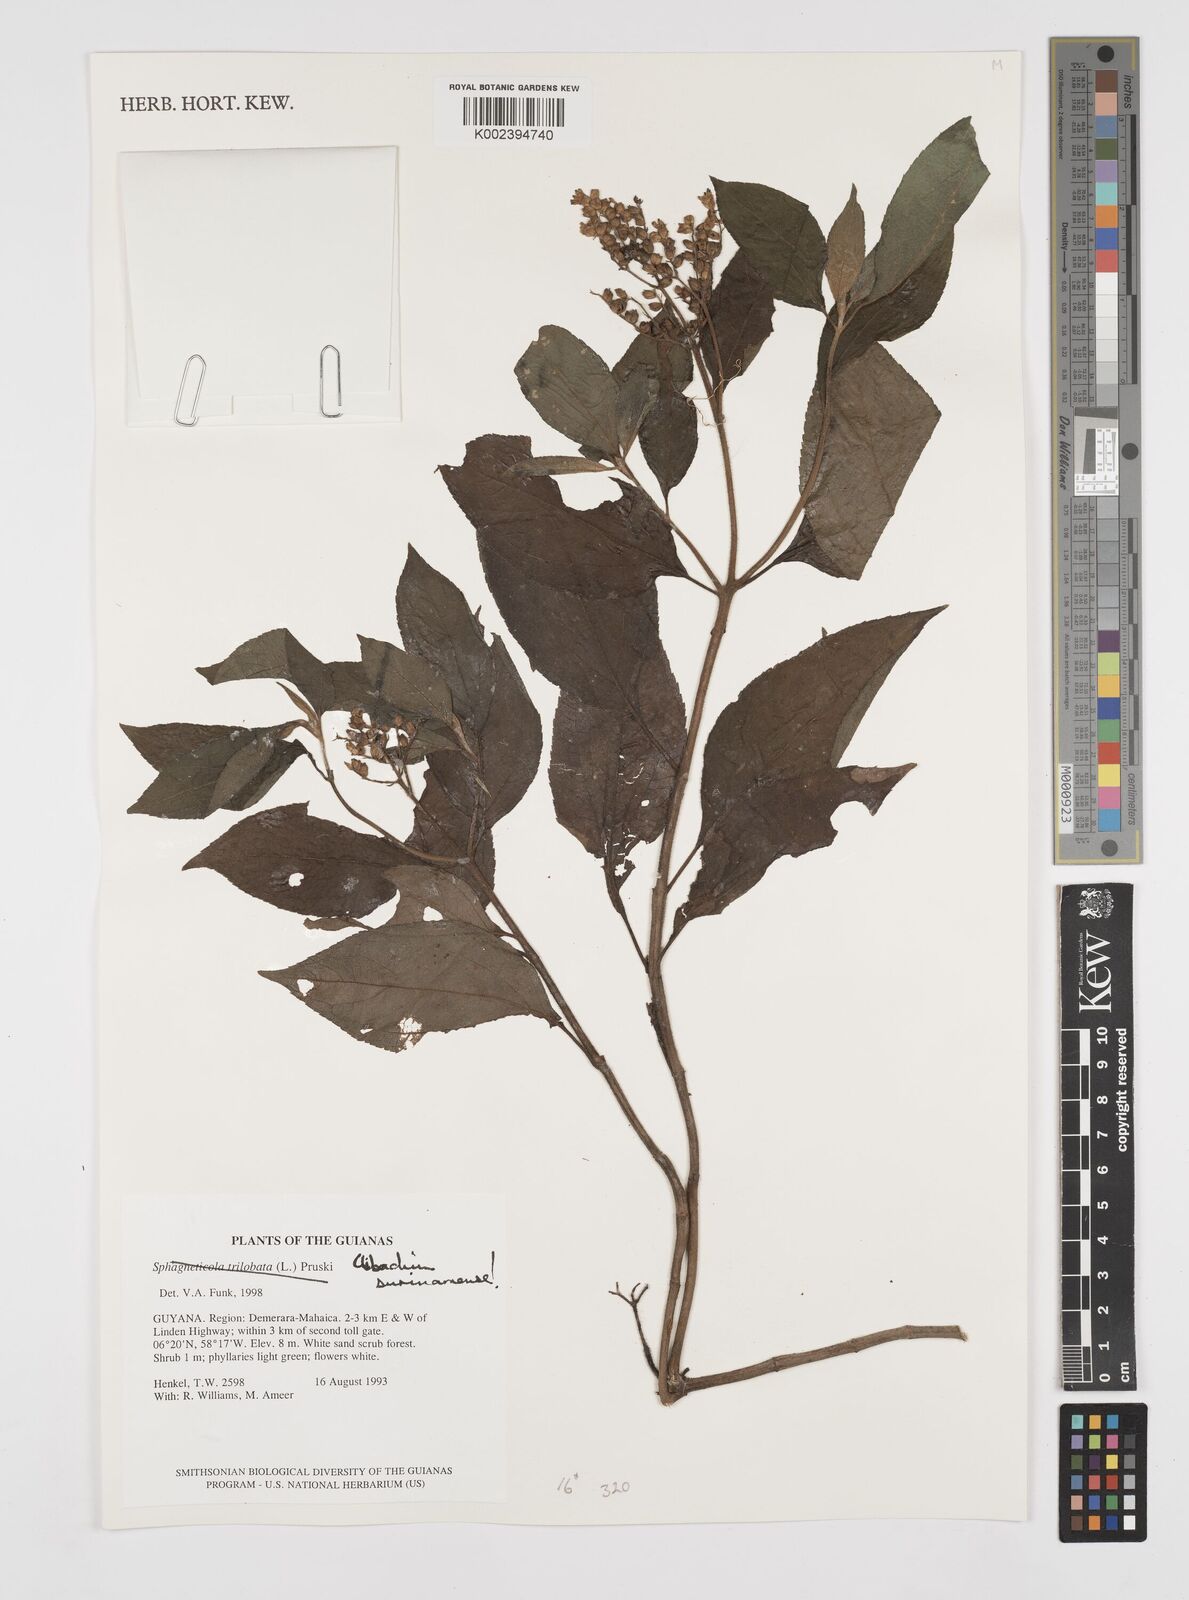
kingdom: Plantae
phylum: Tracheophyta
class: Magnoliopsida
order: Asterales
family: Asteraceae
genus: Clibadium
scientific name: Clibadium surinamense
